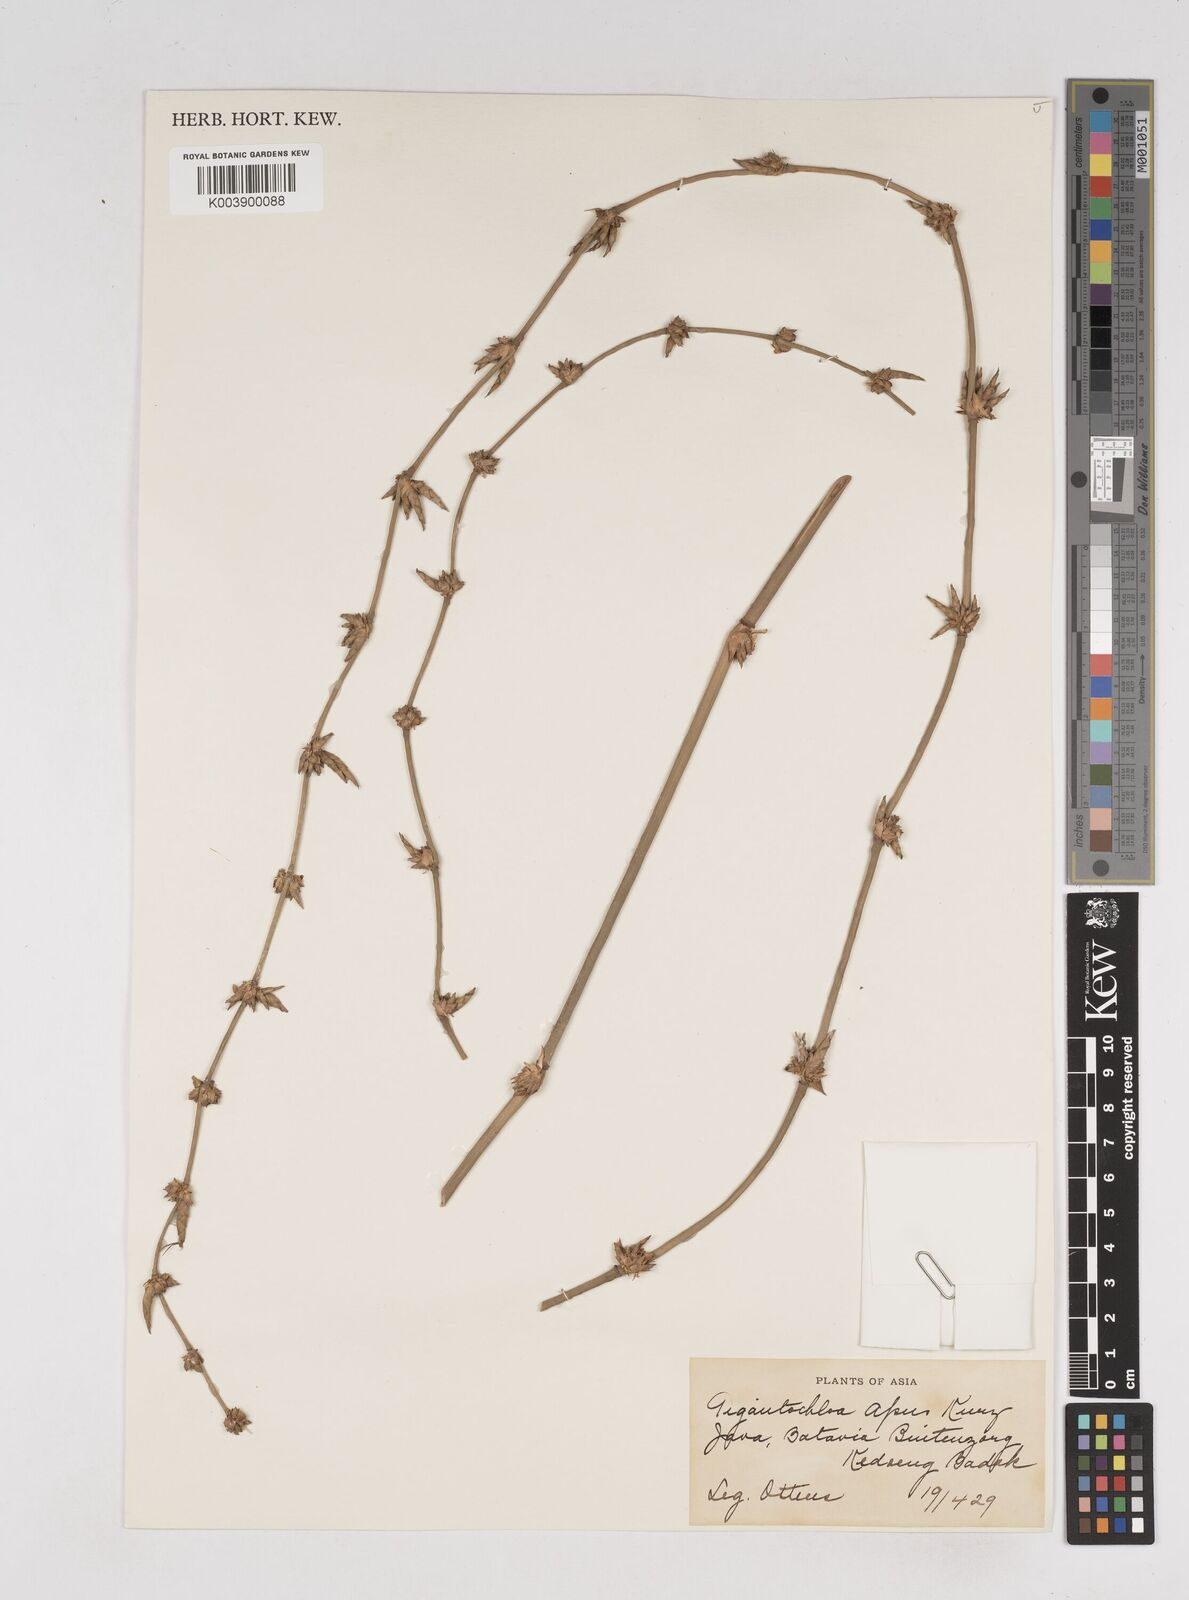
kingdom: Plantae
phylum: Tracheophyta
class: Liliopsida
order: Poales
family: Poaceae
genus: Gigantochloa
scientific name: Gigantochloa apus
